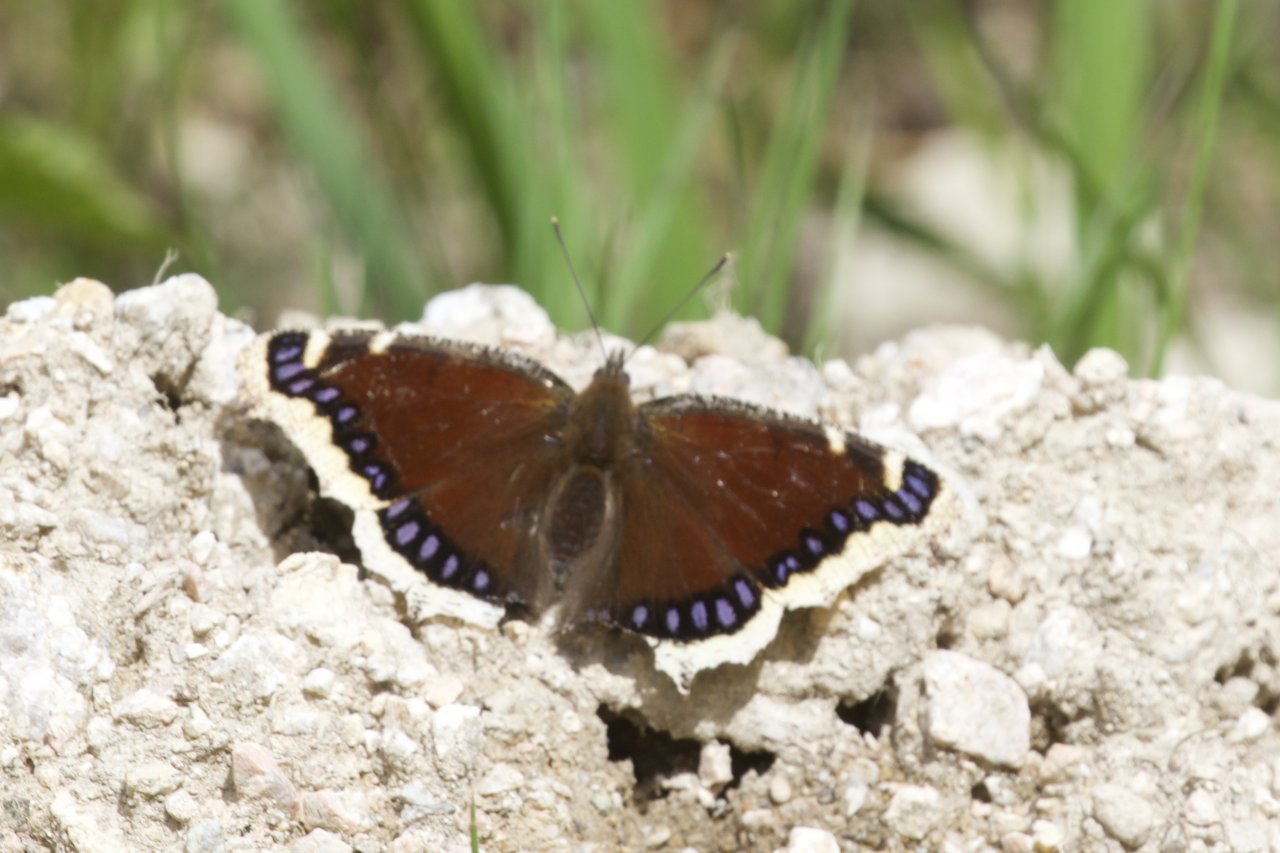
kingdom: Animalia
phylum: Arthropoda
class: Insecta
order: Lepidoptera
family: Nymphalidae
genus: Nymphalis
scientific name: Nymphalis antiopa
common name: Mourning Cloak
